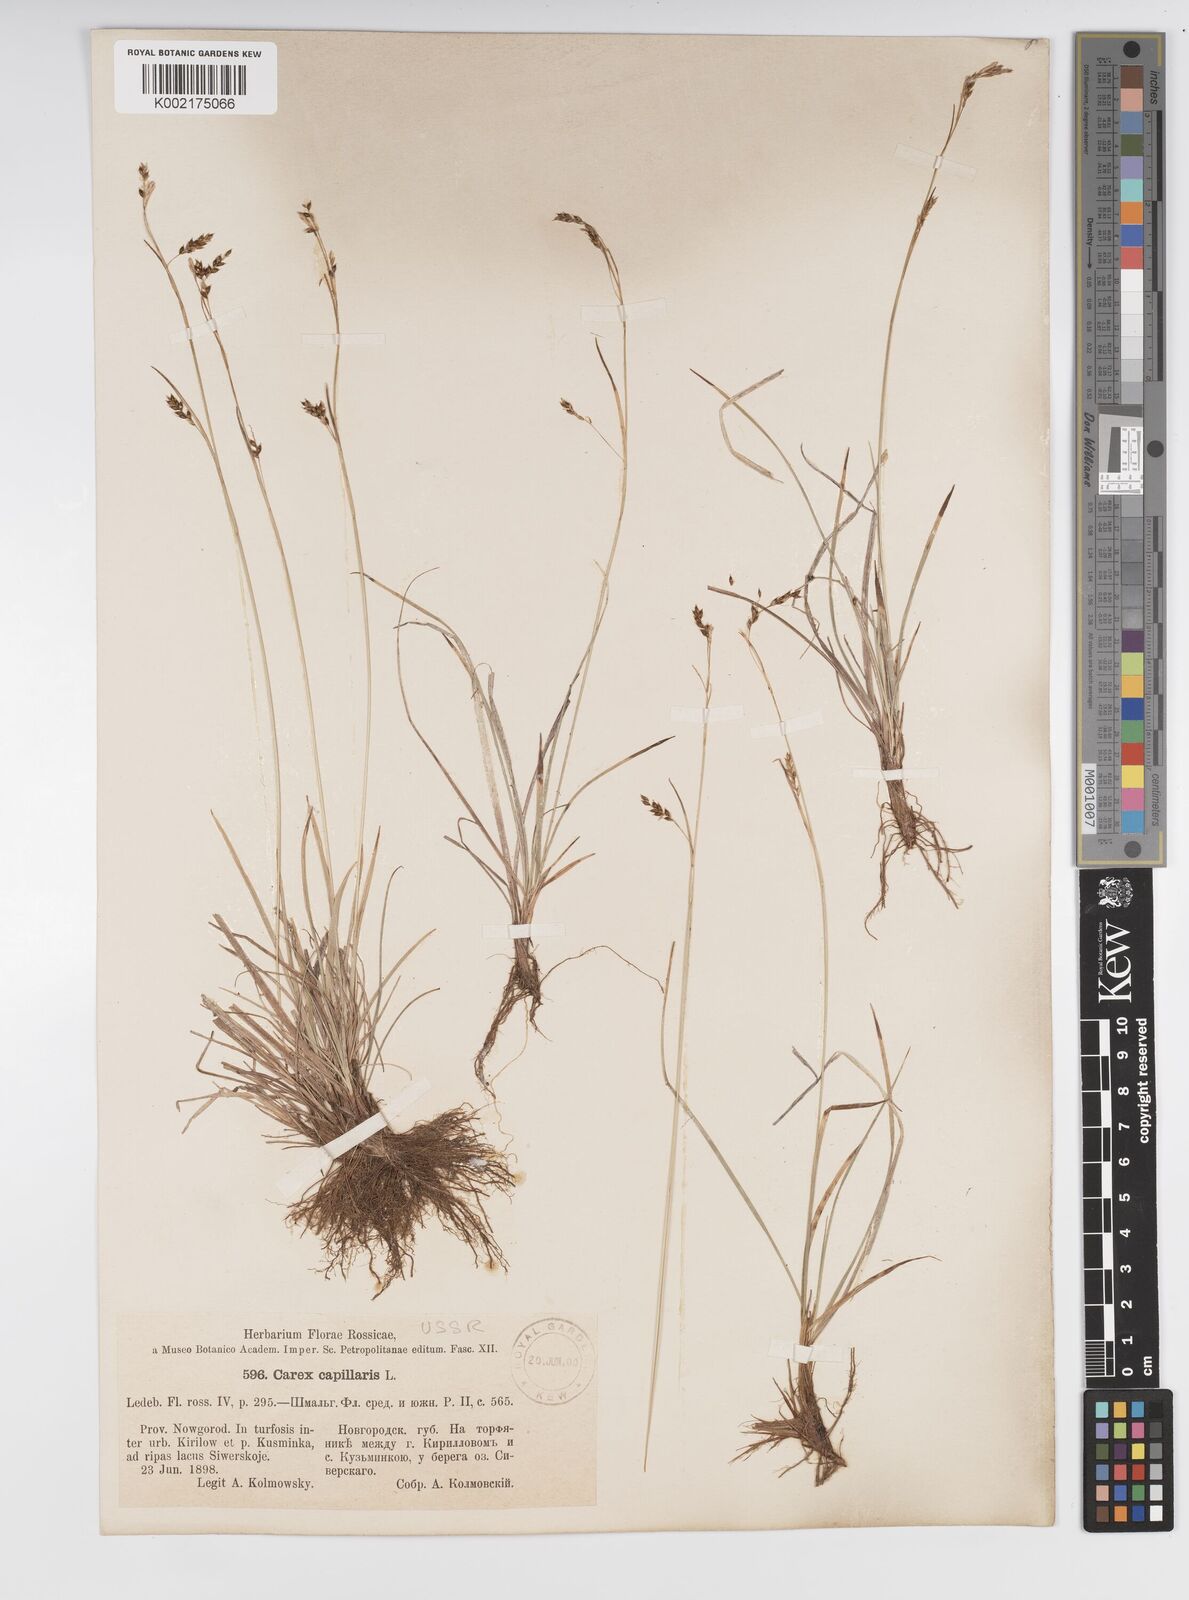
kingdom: Plantae
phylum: Tracheophyta
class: Liliopsida
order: Poales
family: Cyperaceae
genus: Carex
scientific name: Carex capillaris
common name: Hair sedge
